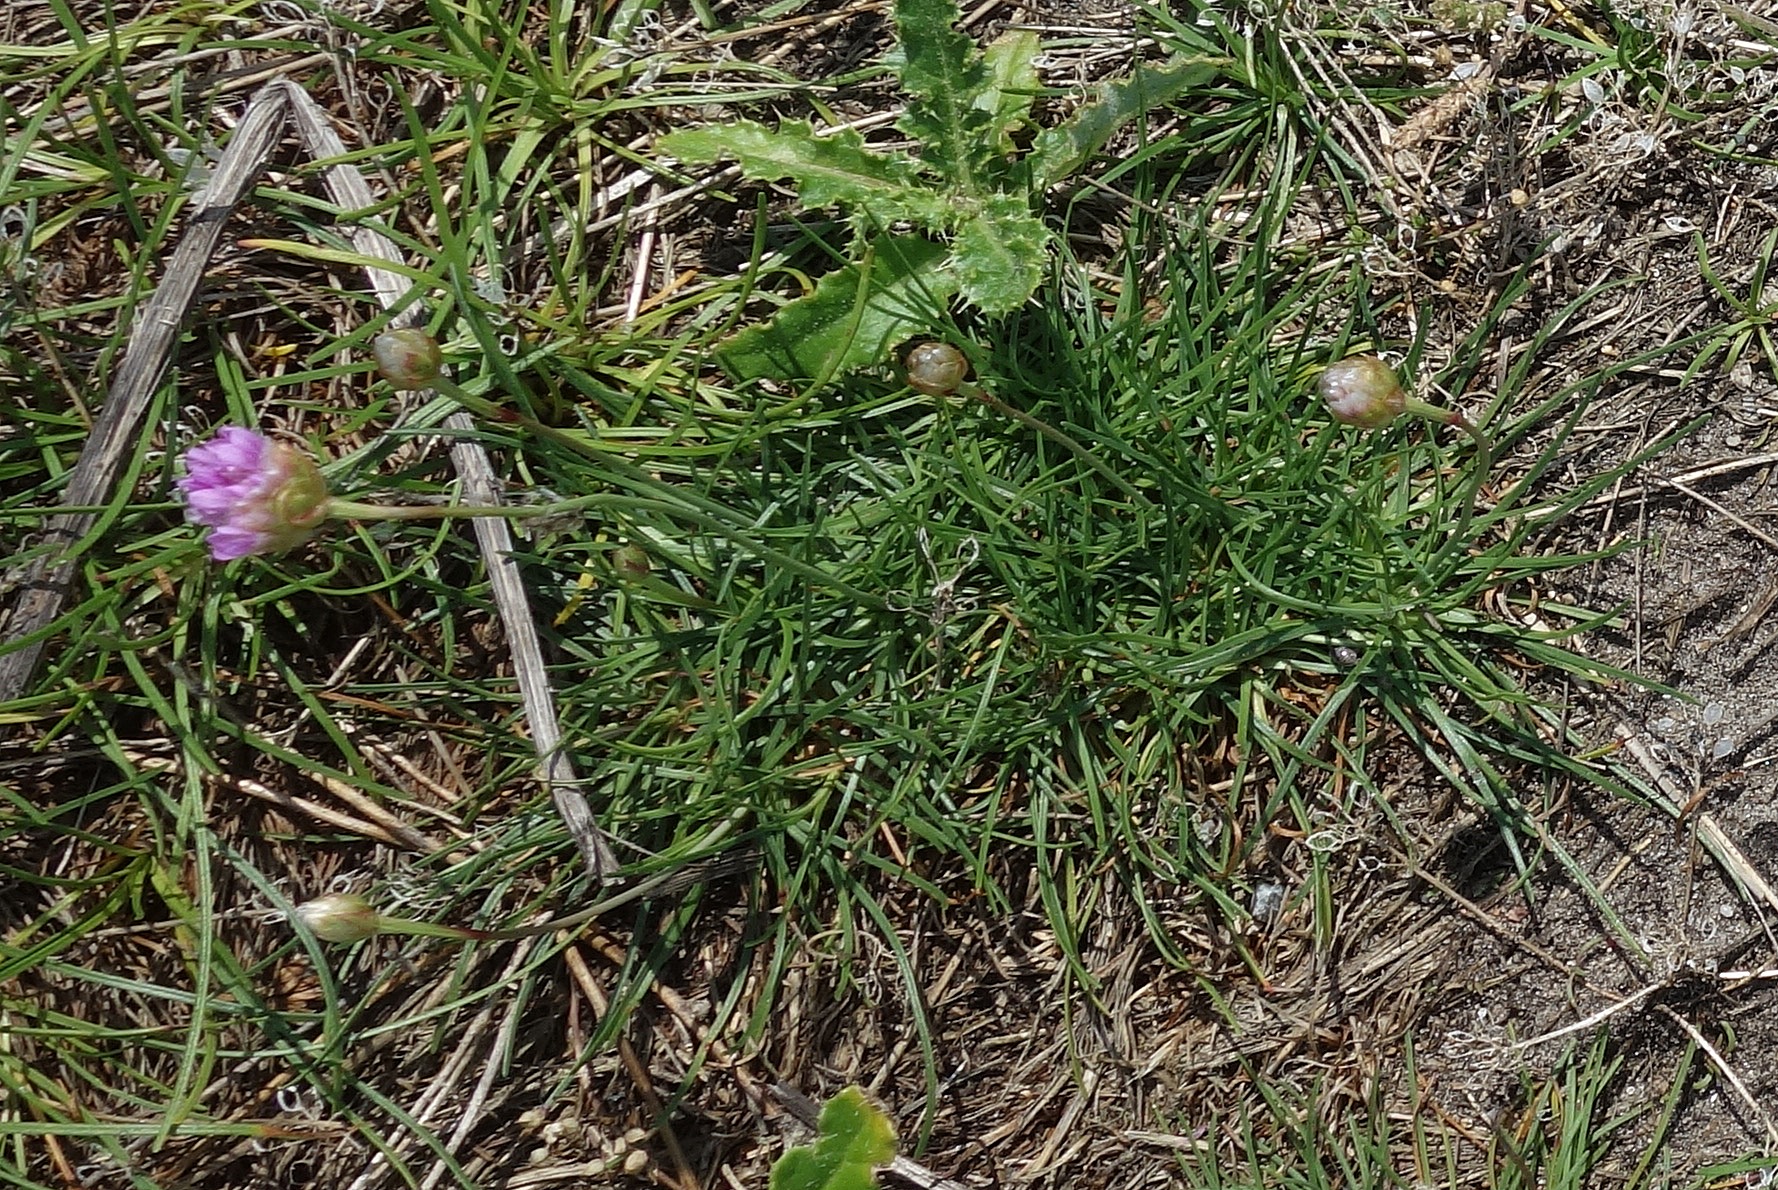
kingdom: Plantae
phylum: Tracheophyta
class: Magnoliopsida
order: Caryophyllales
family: Plumbaginaceae
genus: Armeria
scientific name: Armeria maritima
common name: Engelskgræs
